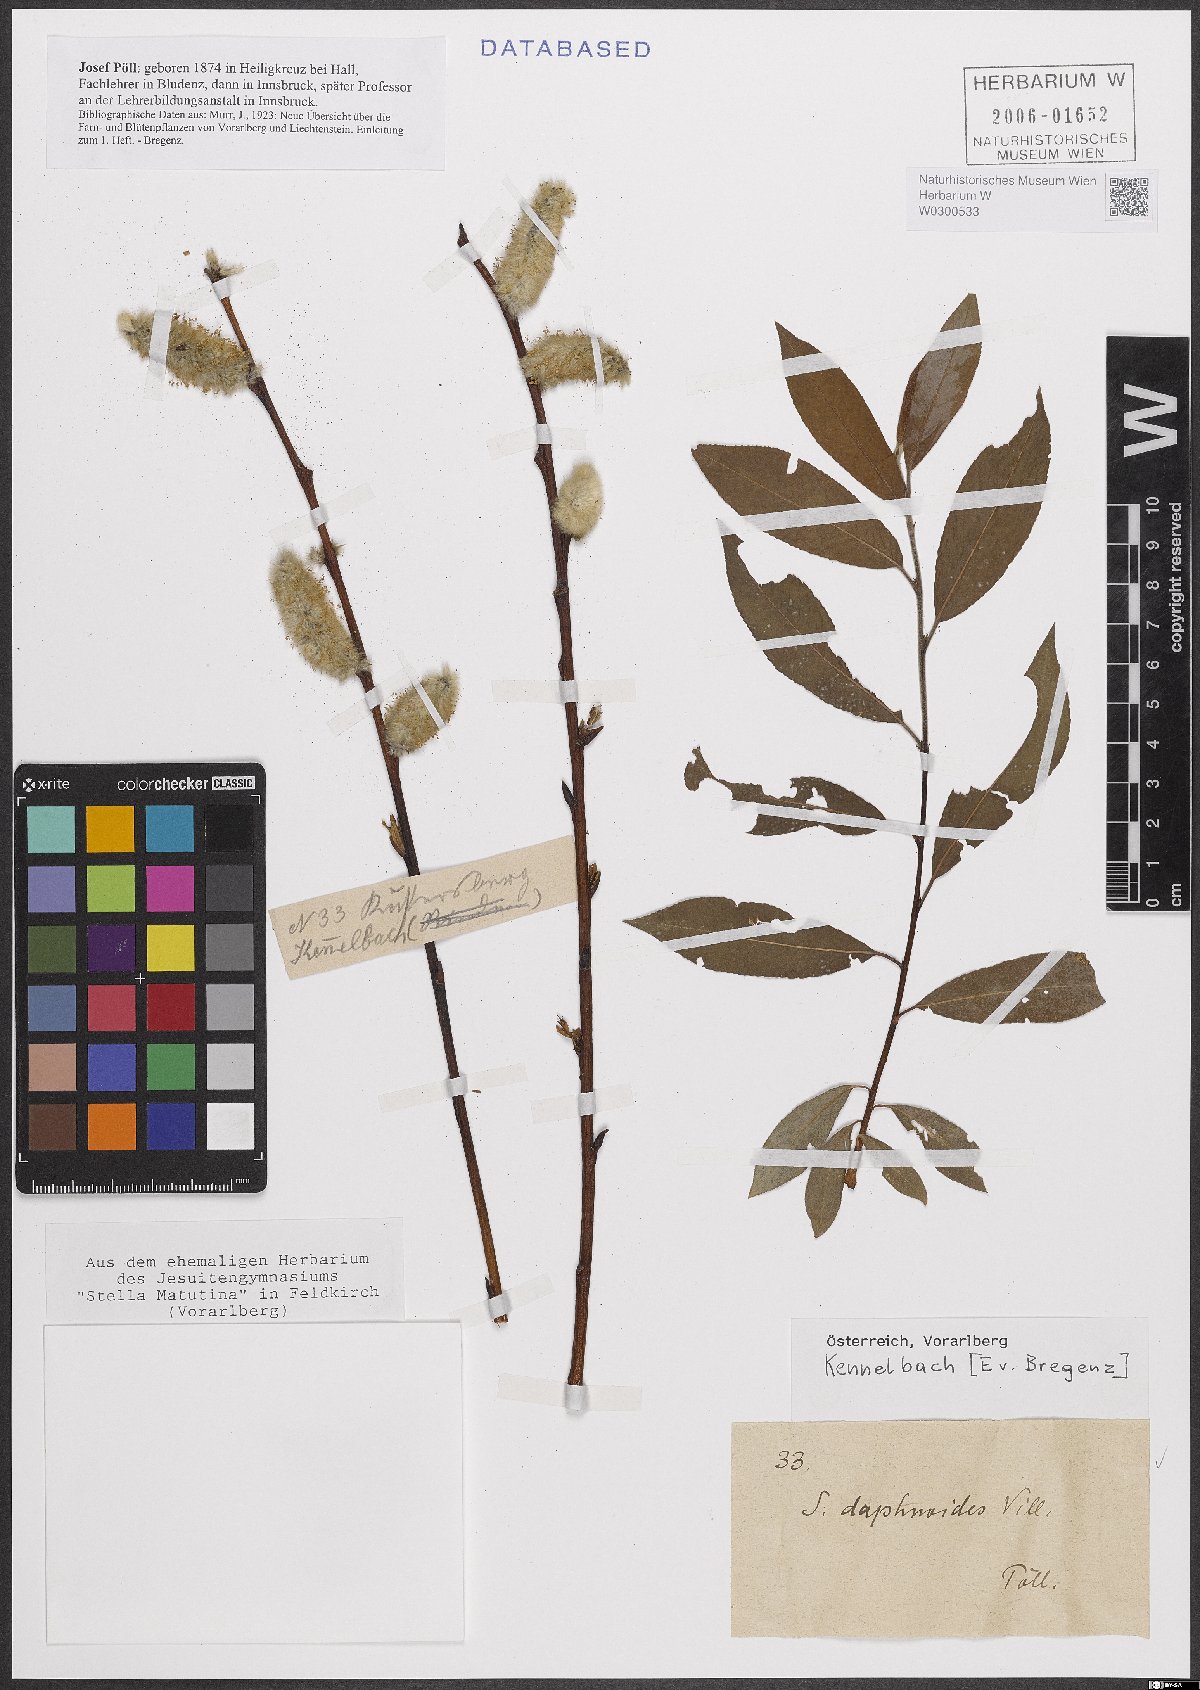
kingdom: Plantae
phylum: Tracheophyta
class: Magnoliopsida
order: Malpighiales
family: Salicaceae
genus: Salix
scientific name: Salix daphnoides
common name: European violet-willow
